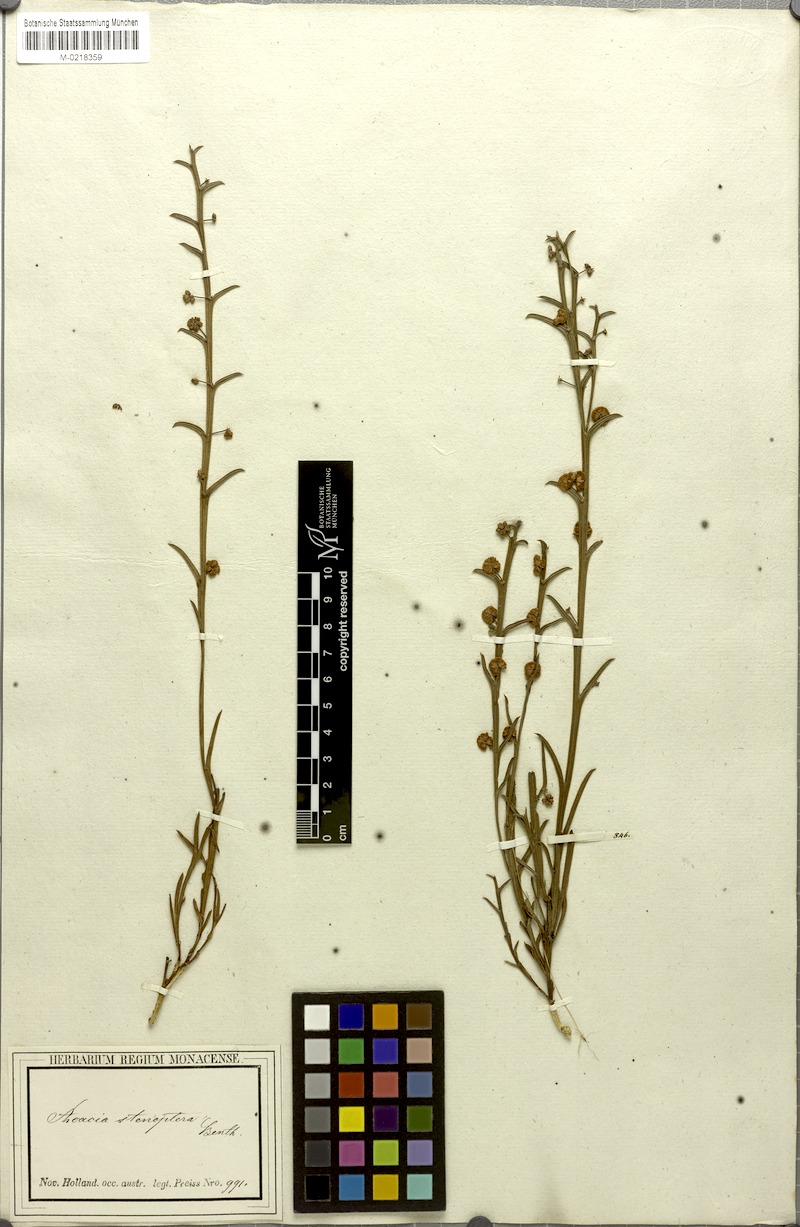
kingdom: Plantae
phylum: Tracheophyta
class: Magnoliopsida
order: Fabales
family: Fabaceae
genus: Acacia
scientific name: Acacia stenoptera
